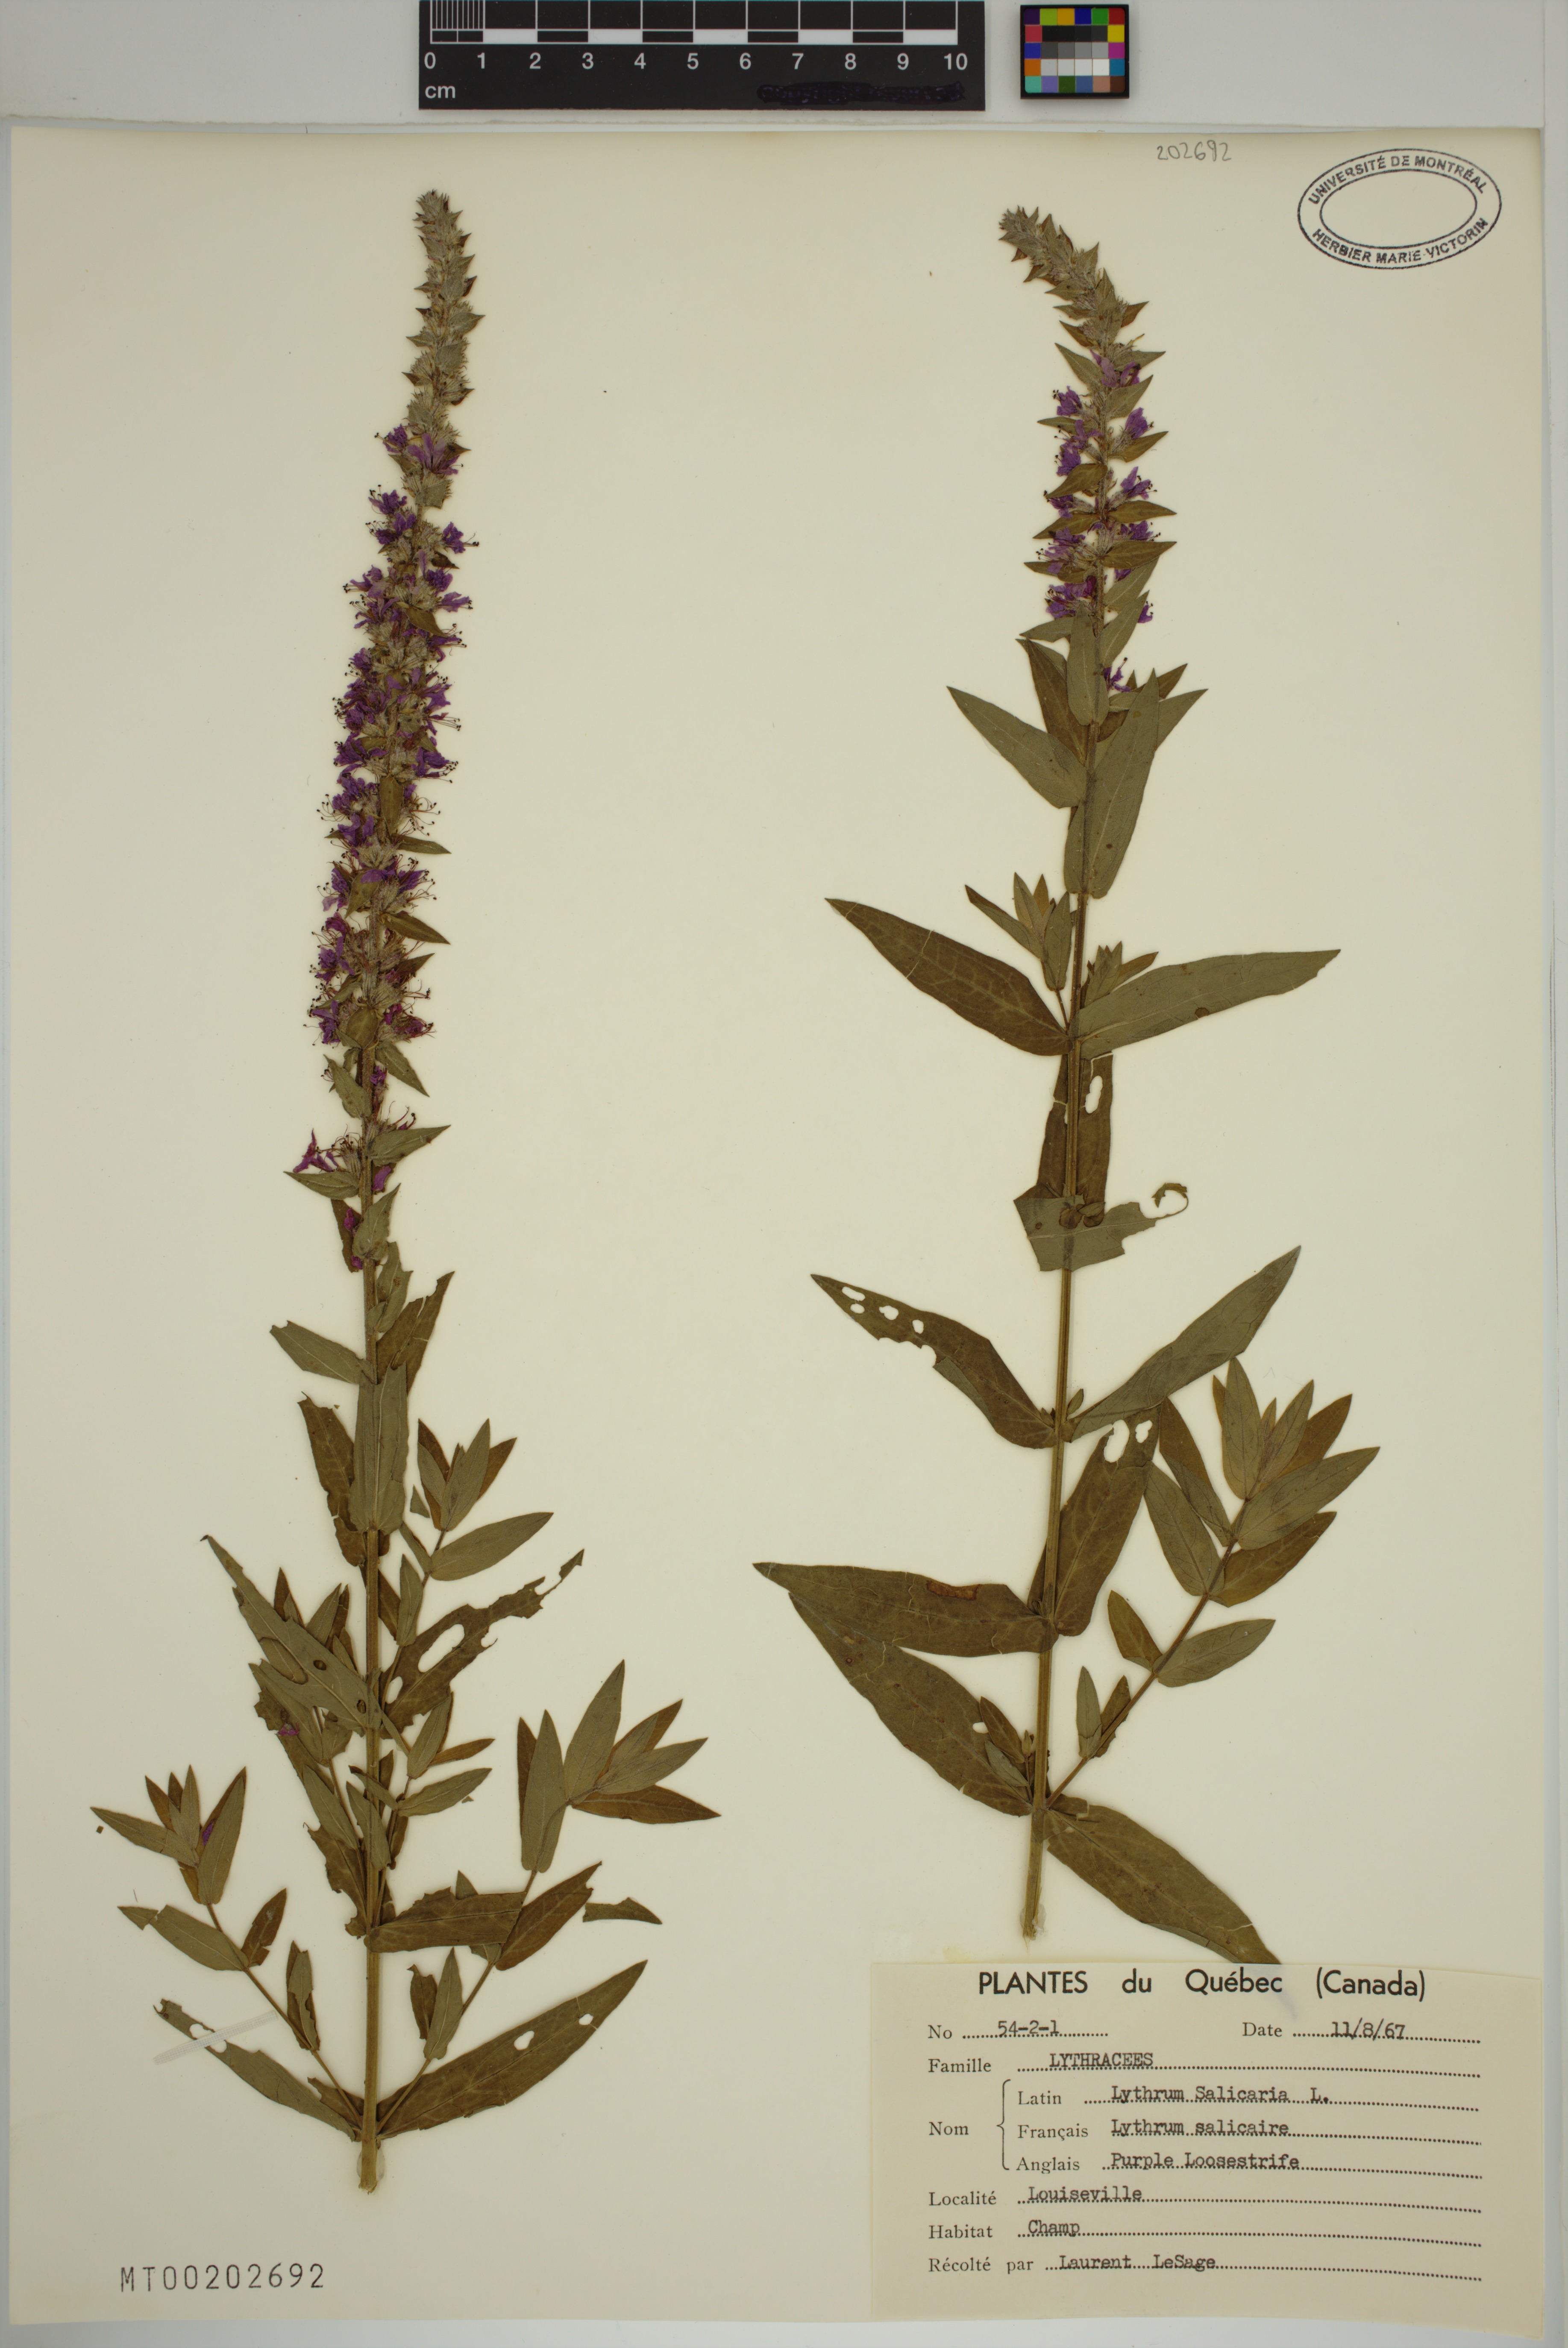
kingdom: Plantae
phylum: Tracheophyta
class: Magnoliopsida
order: Myrtales
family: Lythraceae
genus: Lythrum
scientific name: Lythrum salicaria
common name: Purple loosestrife
